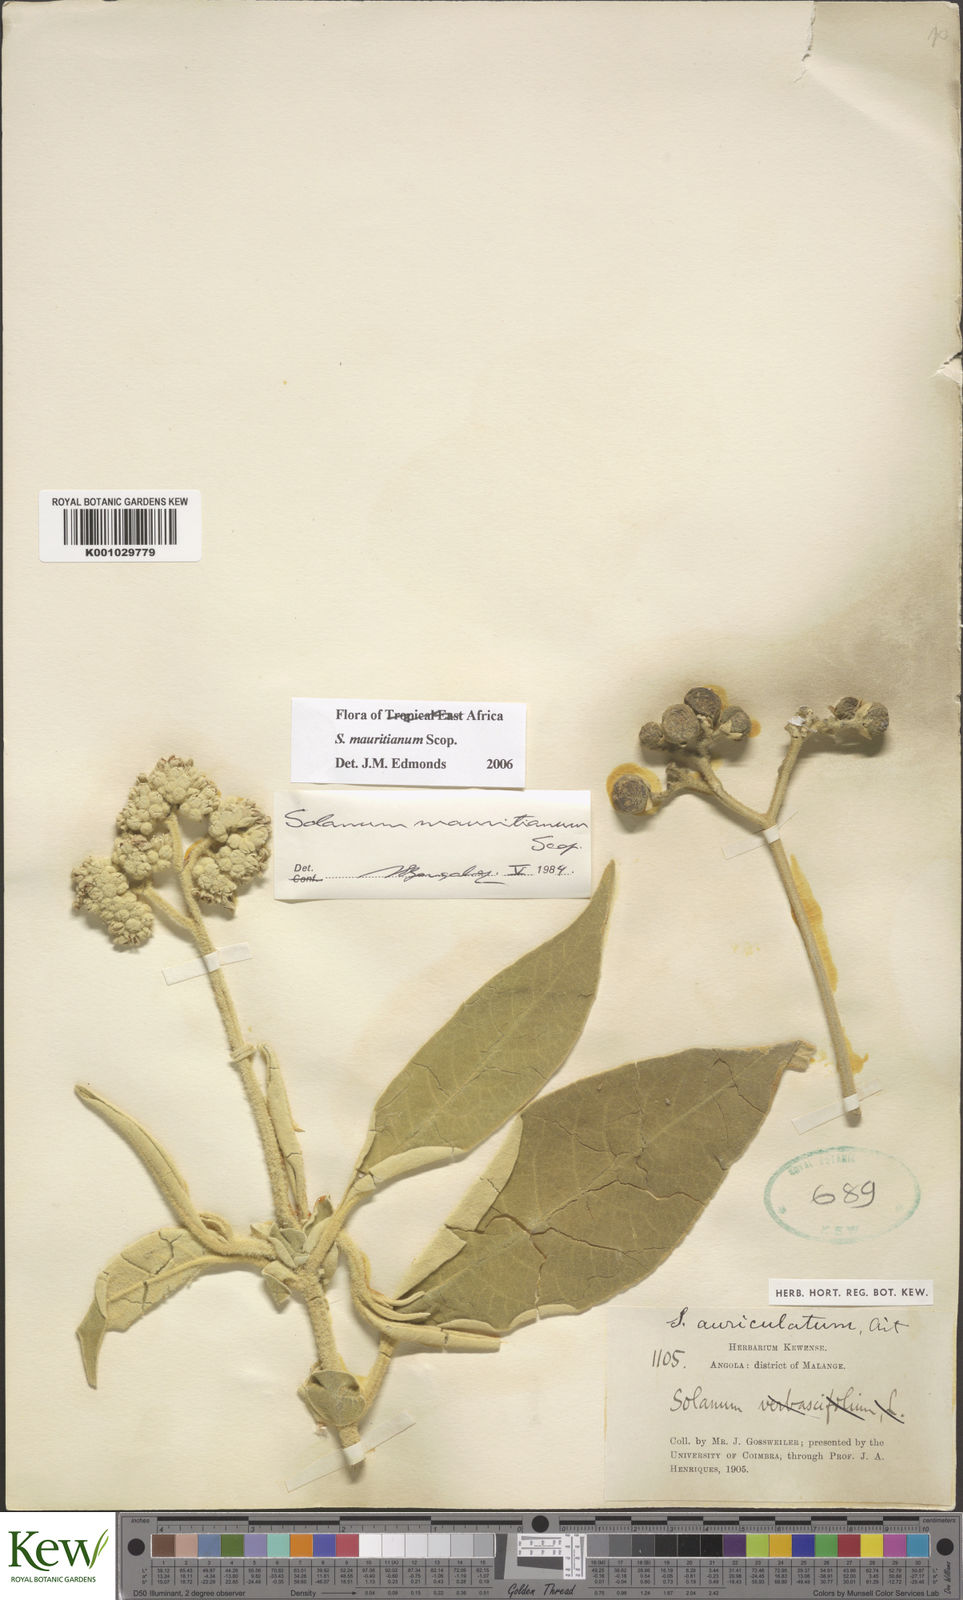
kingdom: Plantae
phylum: Tracheophyta
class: Magnoliopsida
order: Solanales
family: Solanaceae
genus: Solanum
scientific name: Solanum mauritianum
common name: Earleaf nightshade
